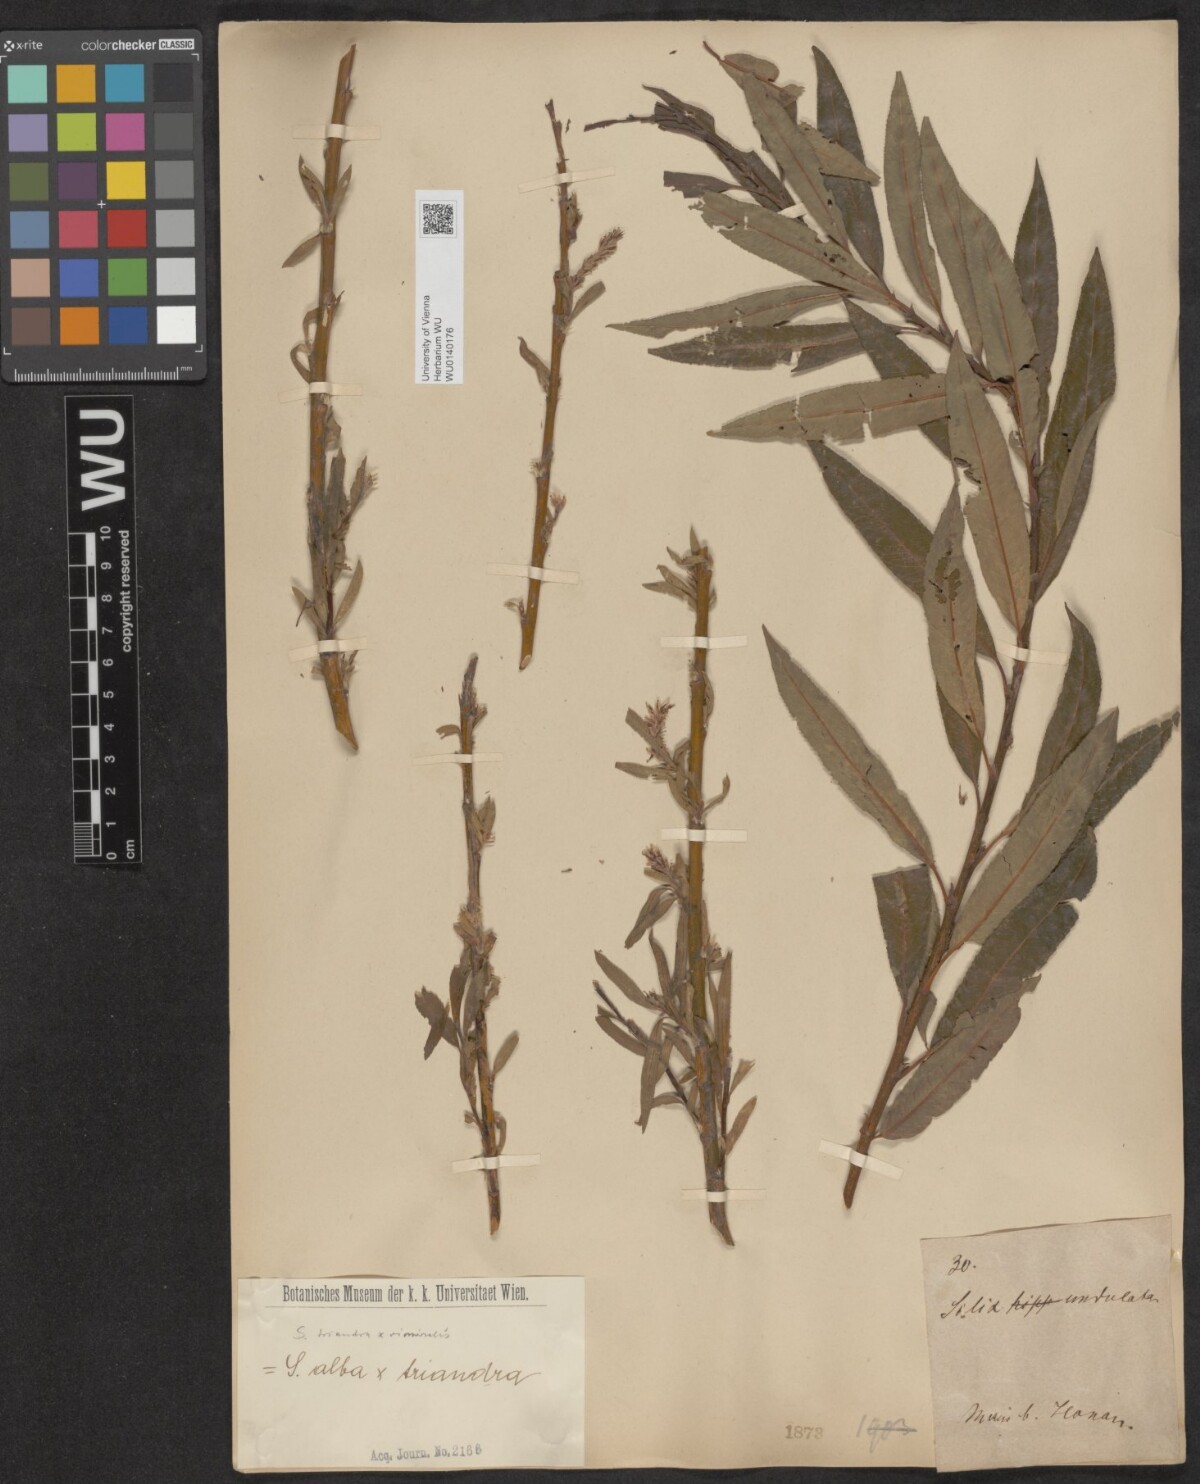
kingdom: Plantae
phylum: Tracheophyta
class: Magnoliopsida
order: Malpighiales
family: Salicaceae
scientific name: Salicaceae
